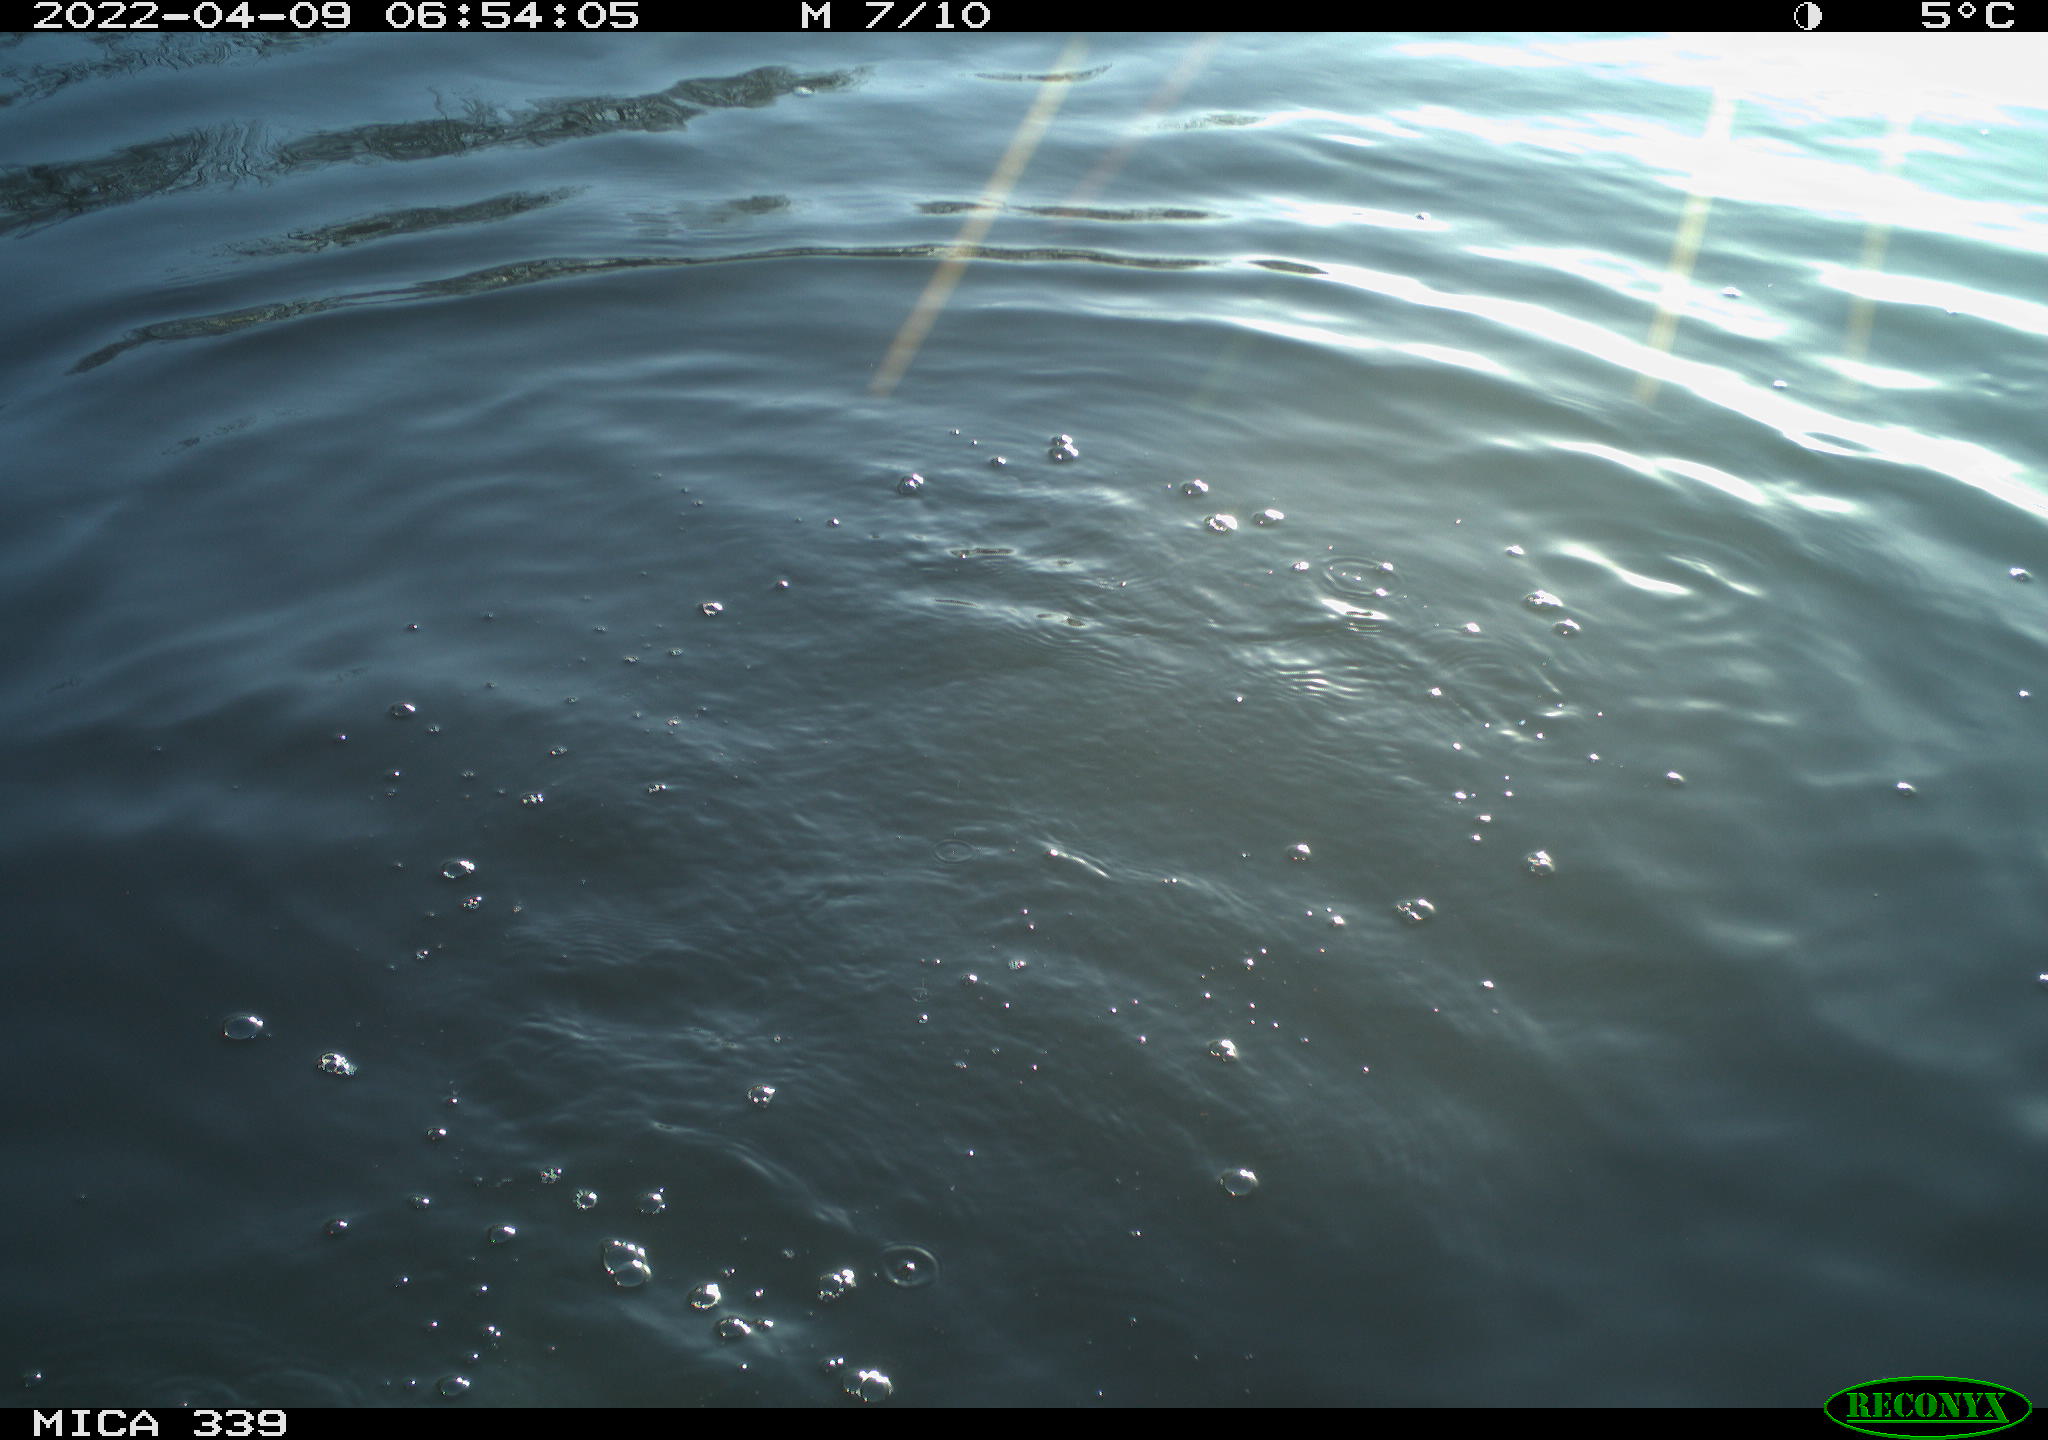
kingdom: Animalia
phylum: Chordata
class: Aves
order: Suliformes
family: Phalacrocoracidae
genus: Phalacrocorax
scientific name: Phalacrocorax carbo
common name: Great cormorant
